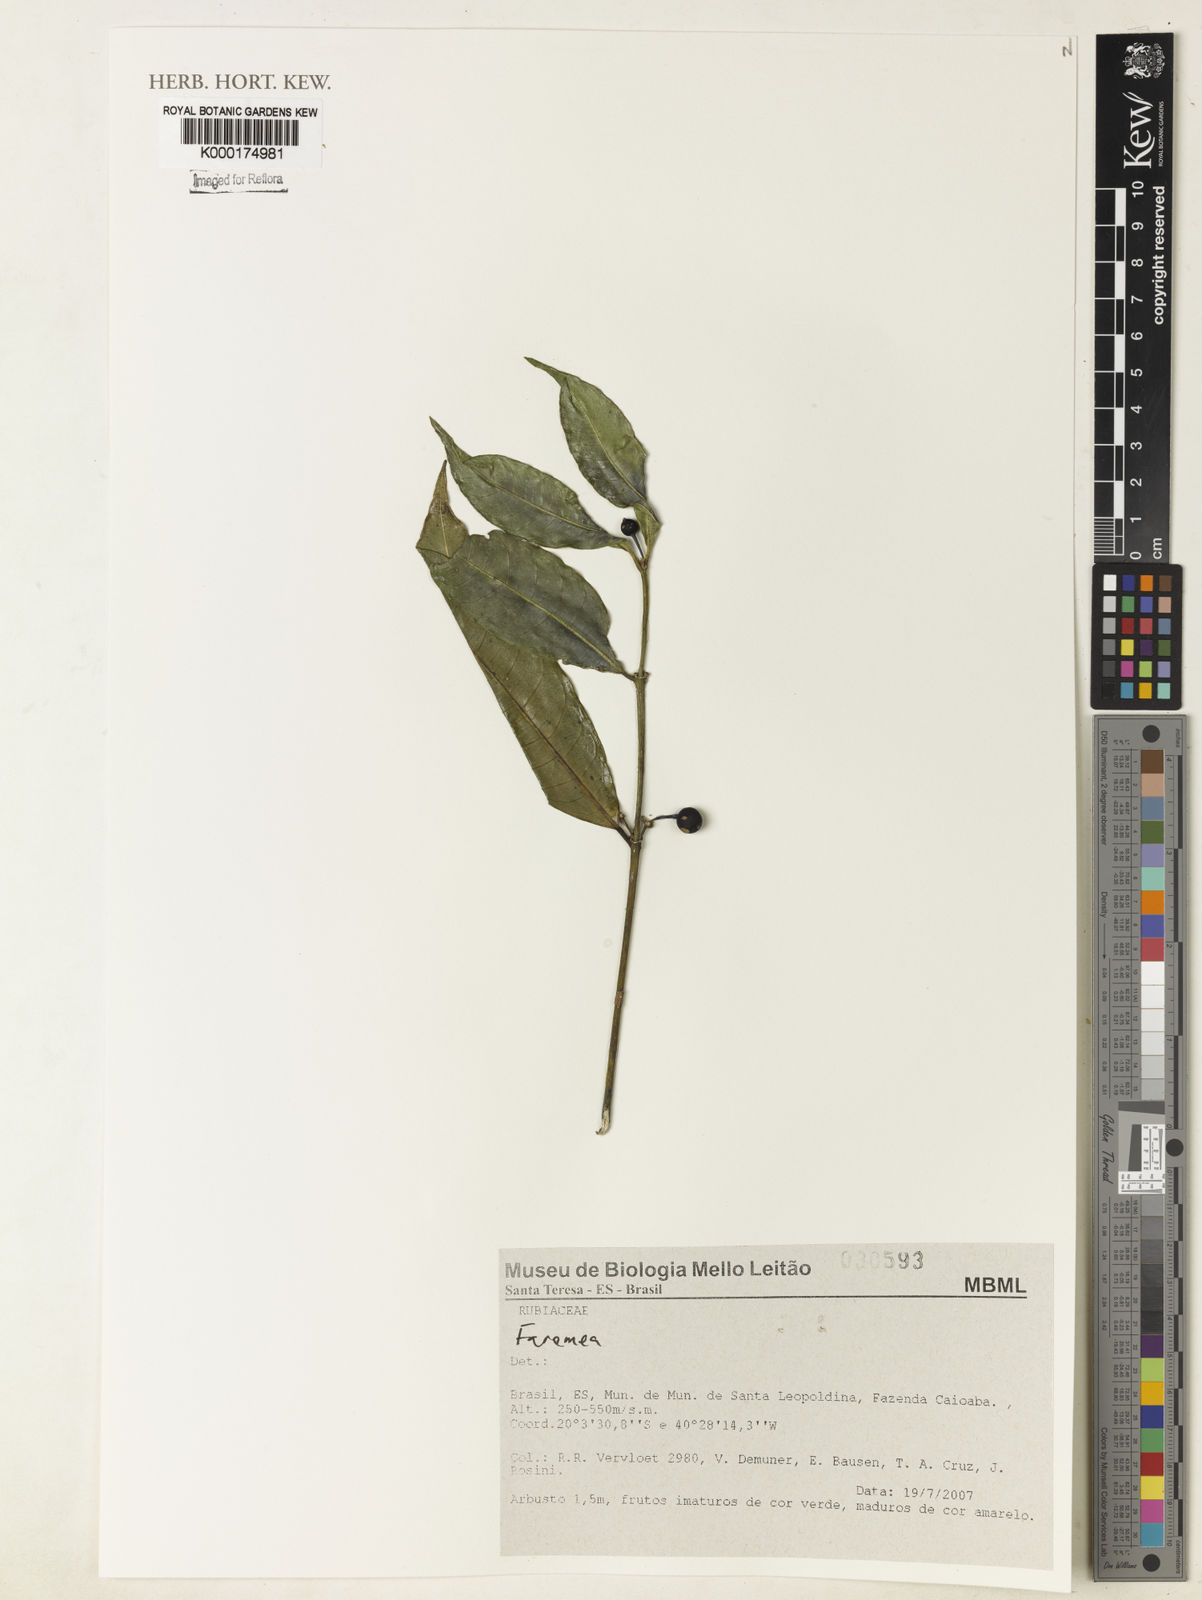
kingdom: Plantae
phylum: Tracheophyta
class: Magnoliopsida
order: Gentianales
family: Rubiaceae
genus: Faramea
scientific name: Faramea
